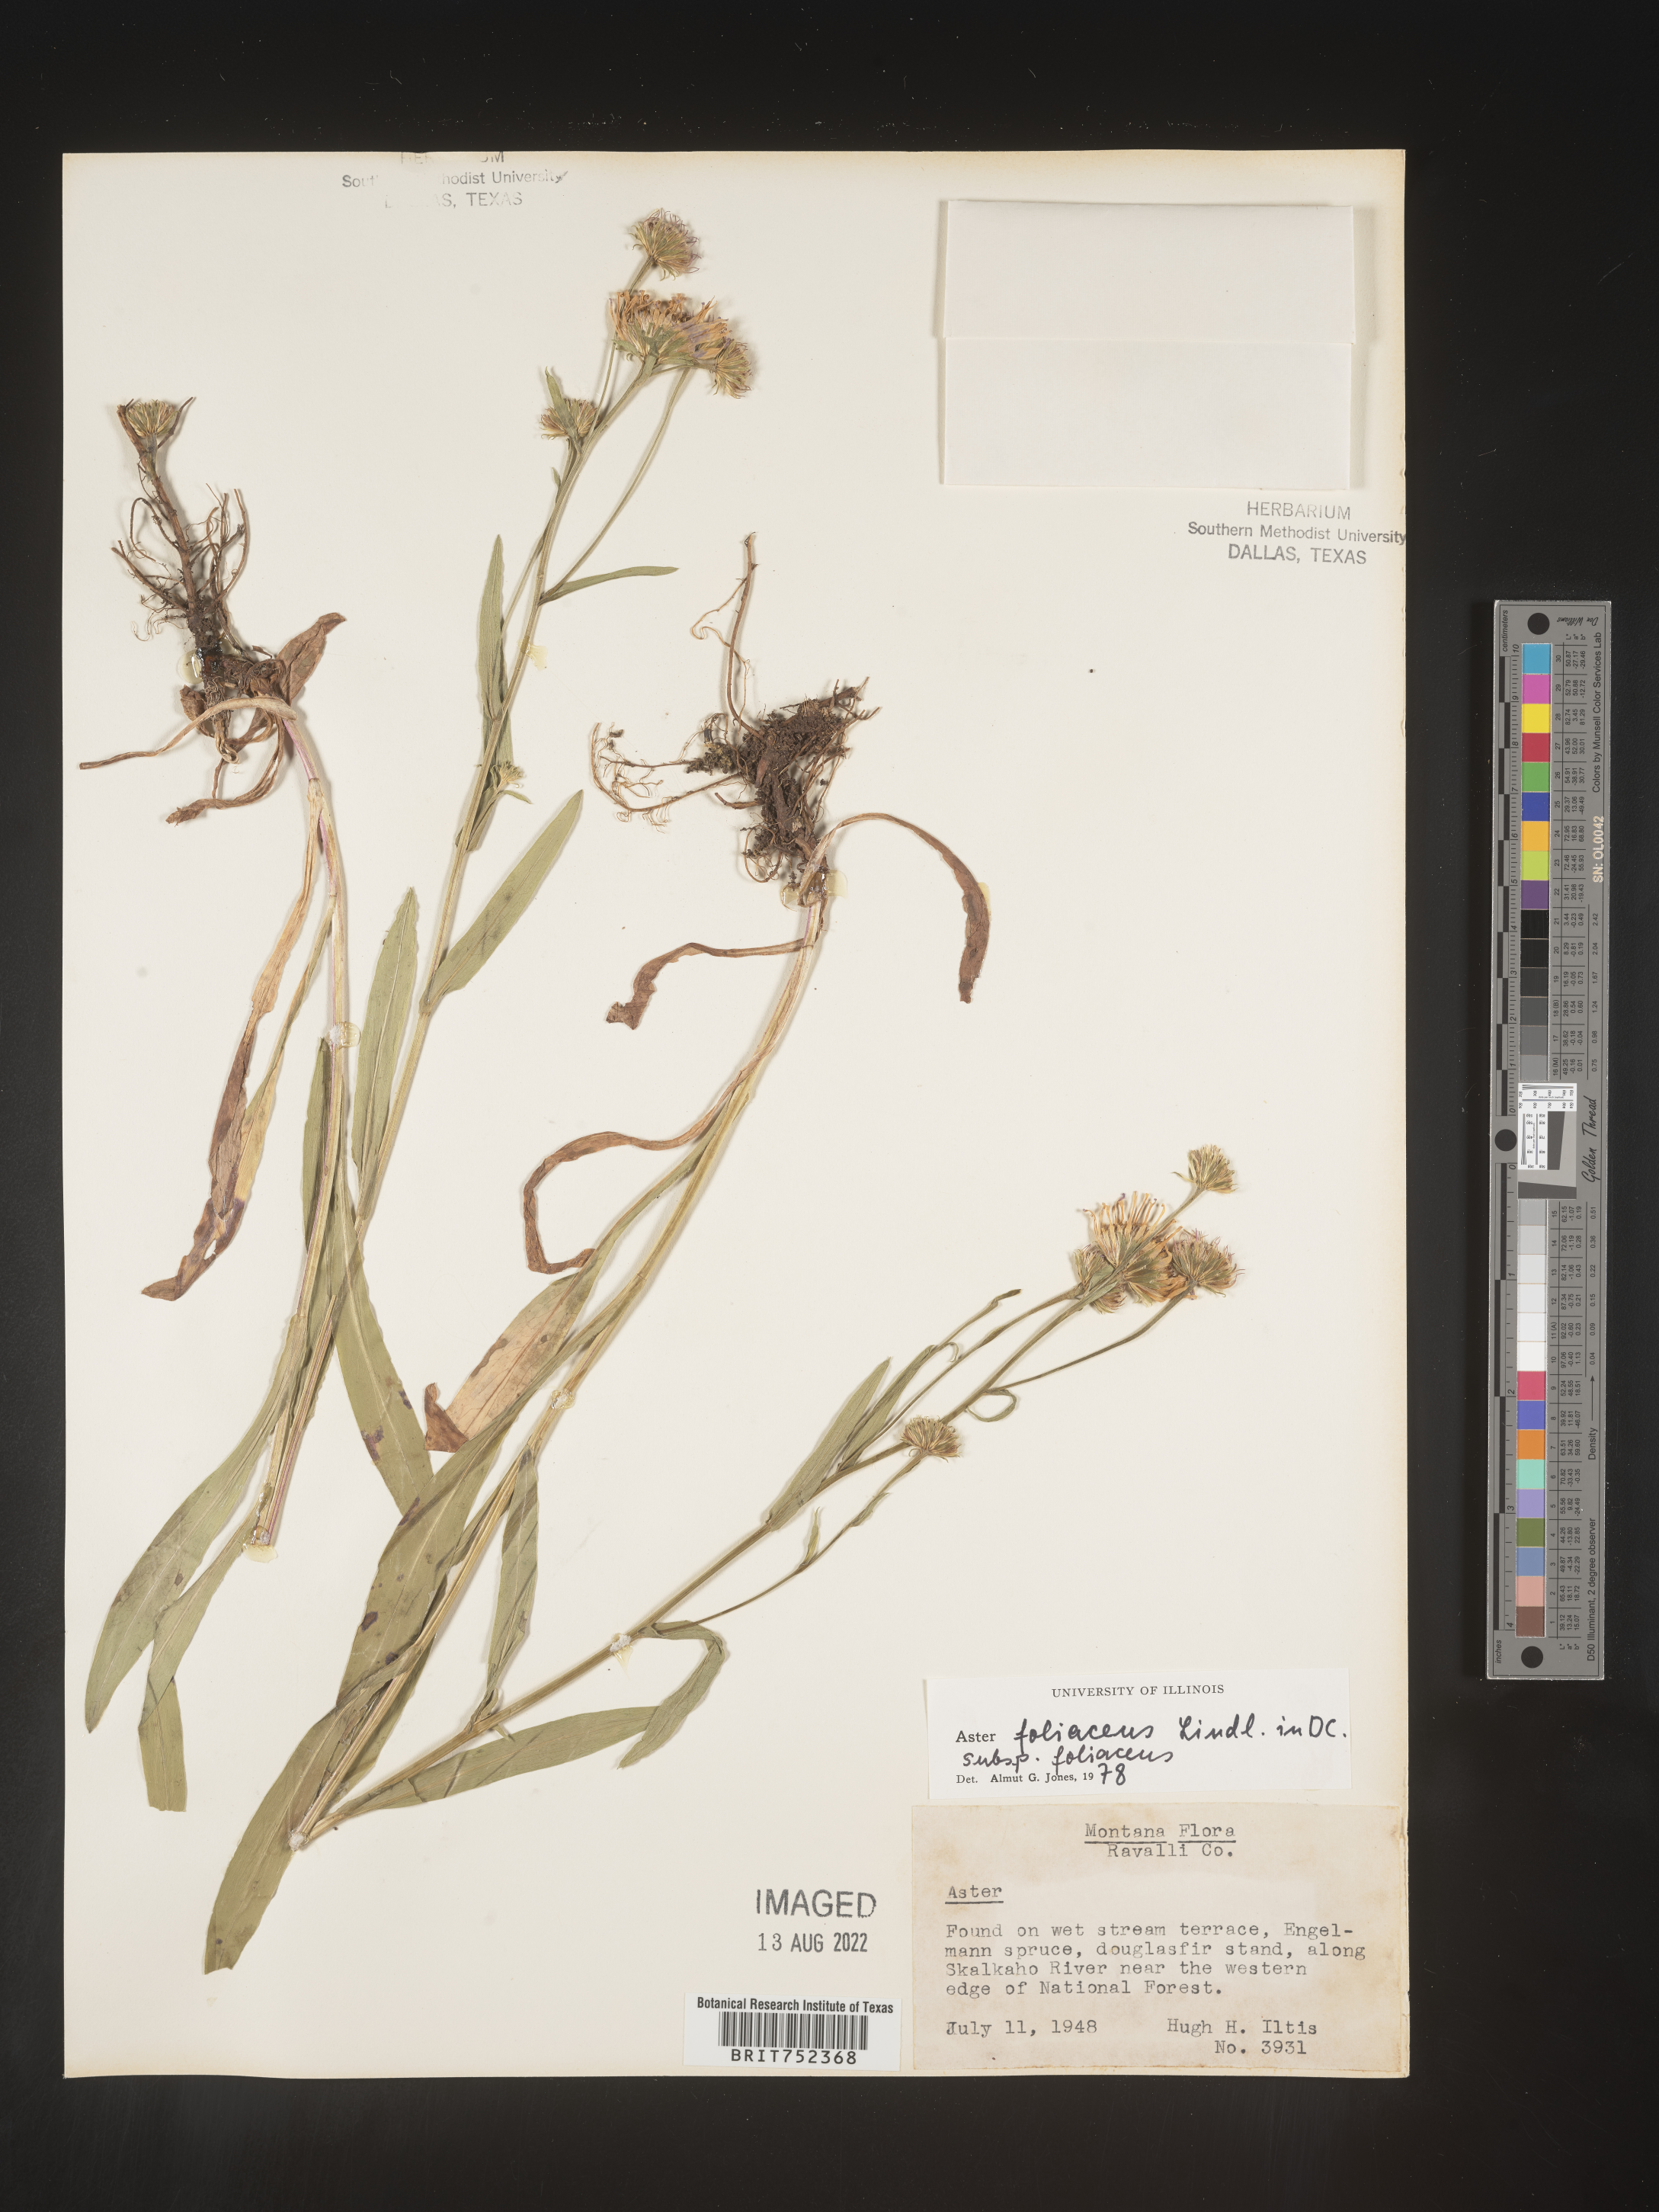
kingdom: Plantae
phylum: Tracheophyta
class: Magnoliopsida
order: Asterales
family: Asteraceae
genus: Symphyotrichum
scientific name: Symphyotrichum foliaceum
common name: Leafy aster
